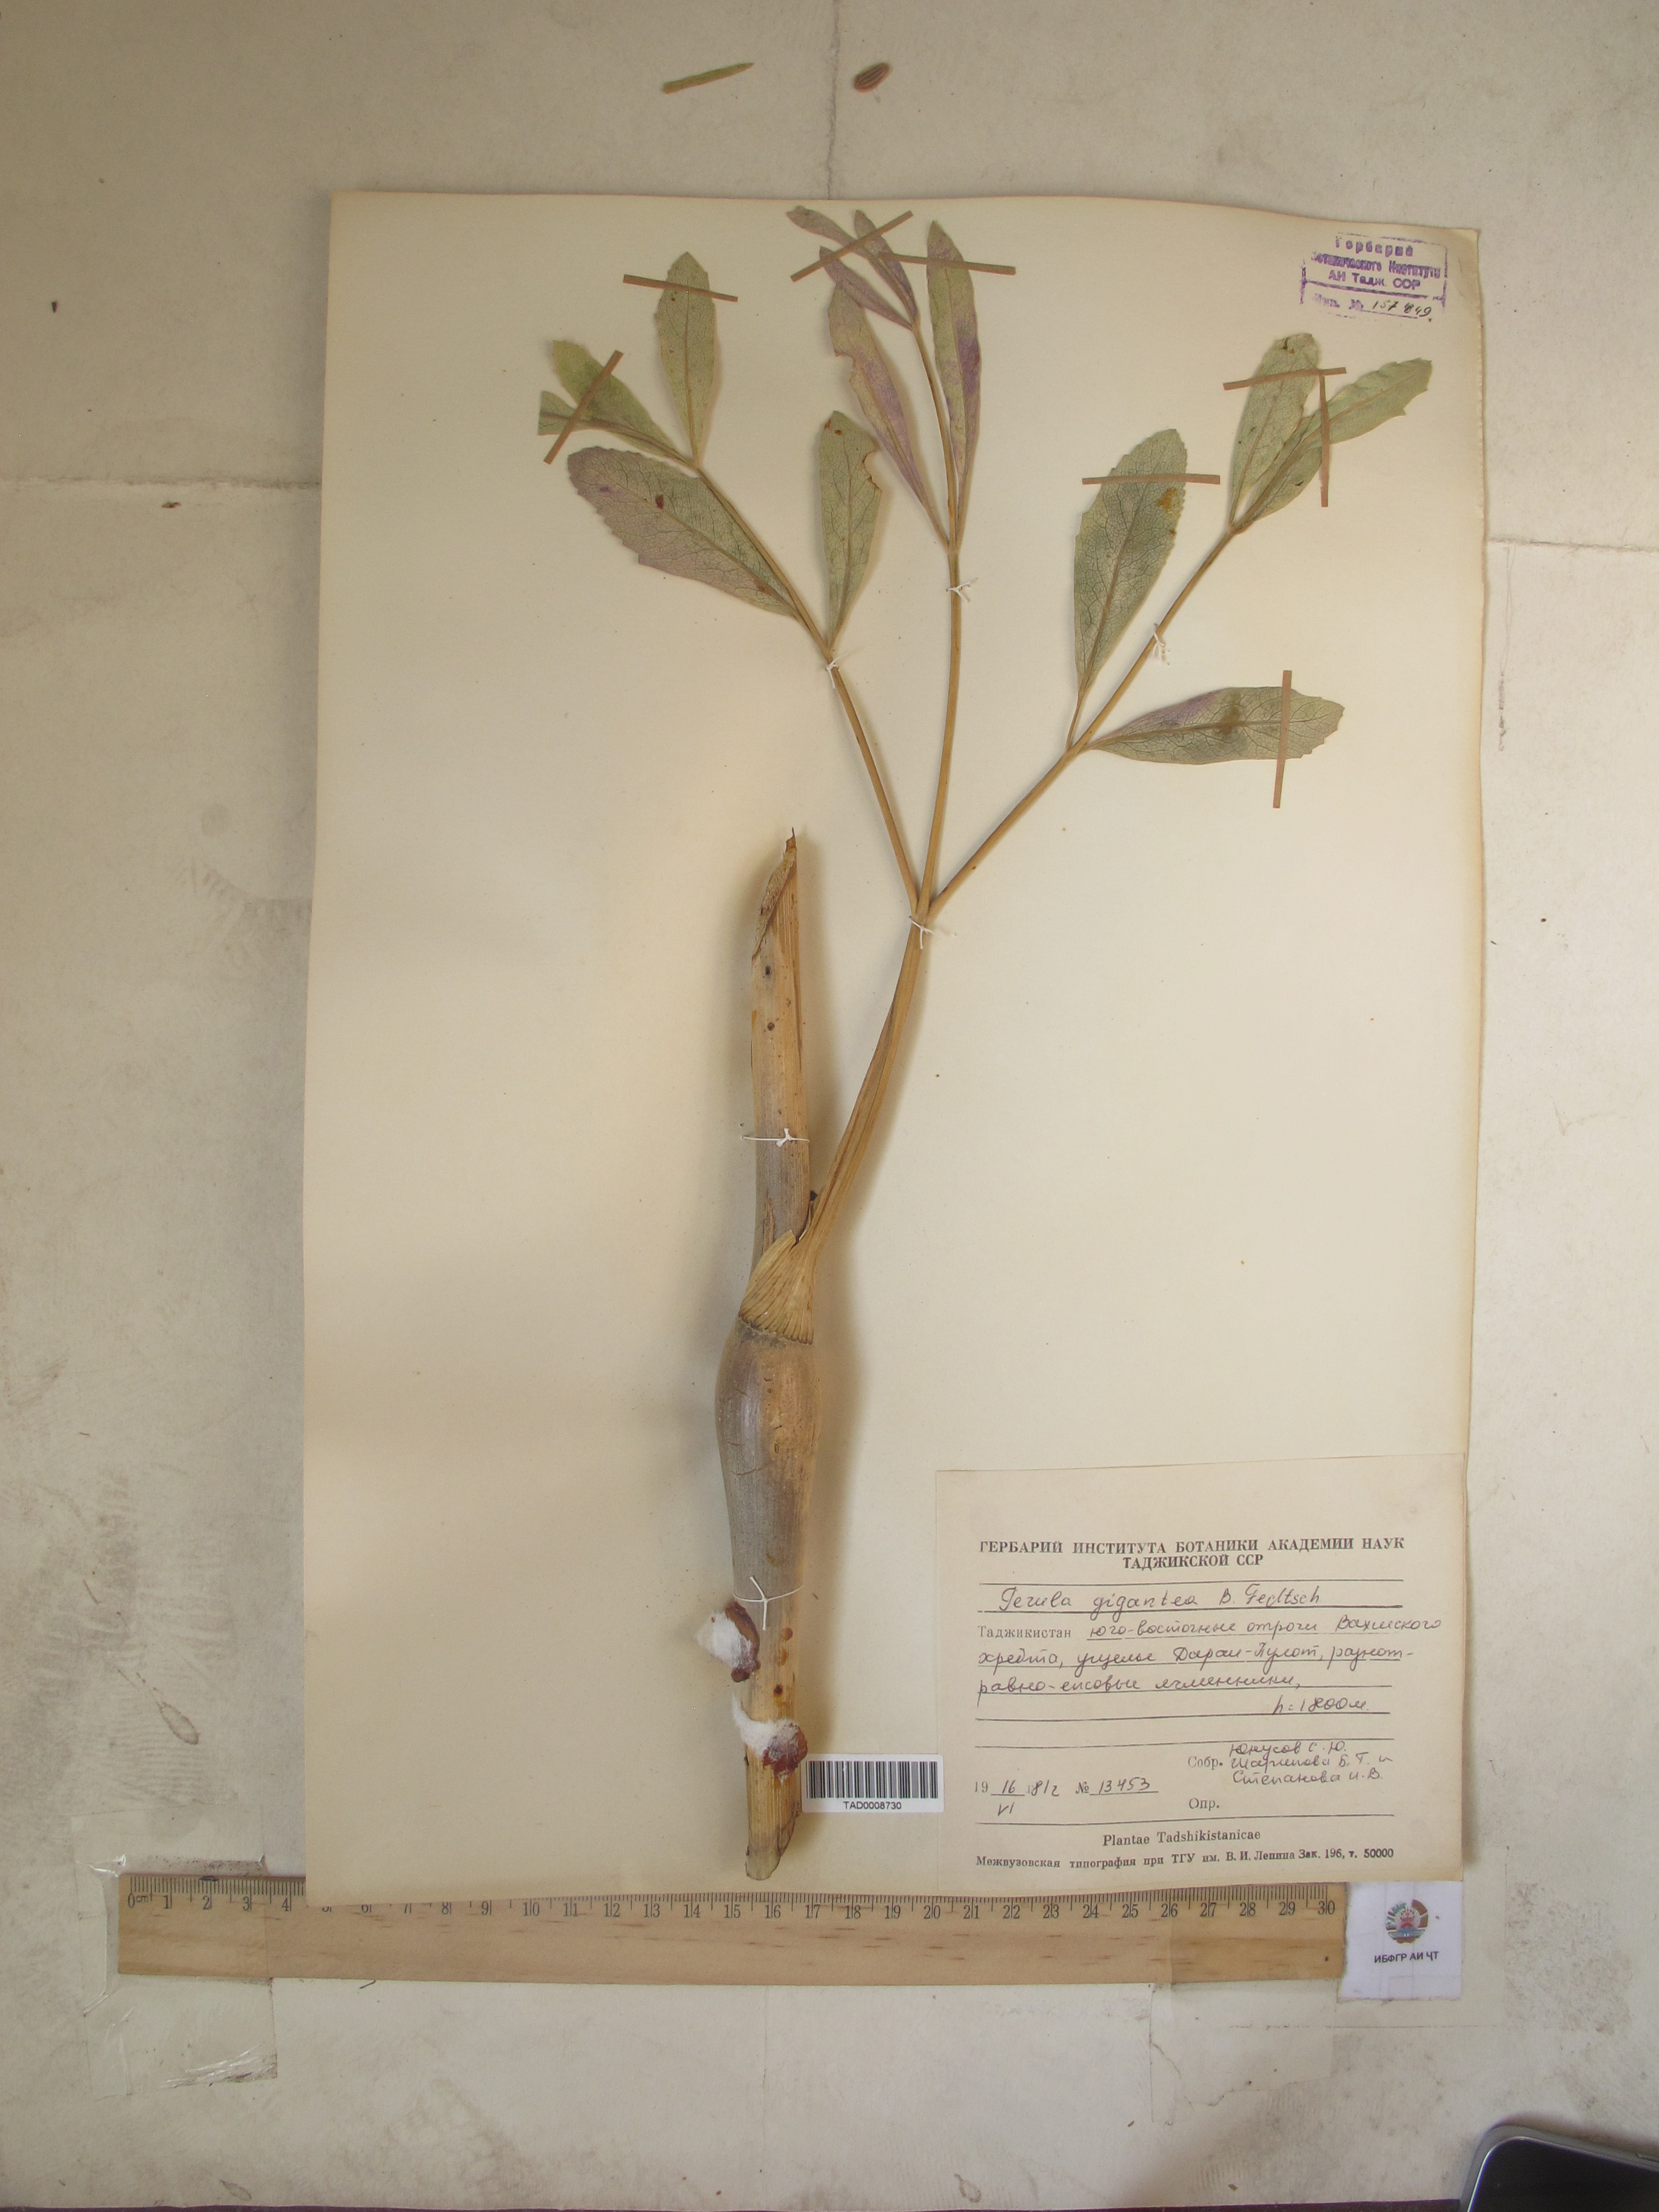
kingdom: Plantae
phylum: Tracheophyta
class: Magnoliopsida
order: Apiales
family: Apiaceae
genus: Ferula
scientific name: Ferula gigantea
